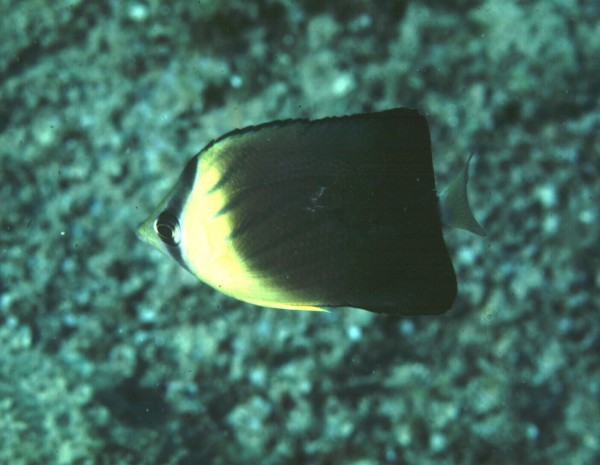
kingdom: Animalia
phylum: Chordata
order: Perciformes
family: Chaetodontidae
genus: Chaetodon
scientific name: Chaetodon blackburnii
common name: Blackburn's butterflyfish
